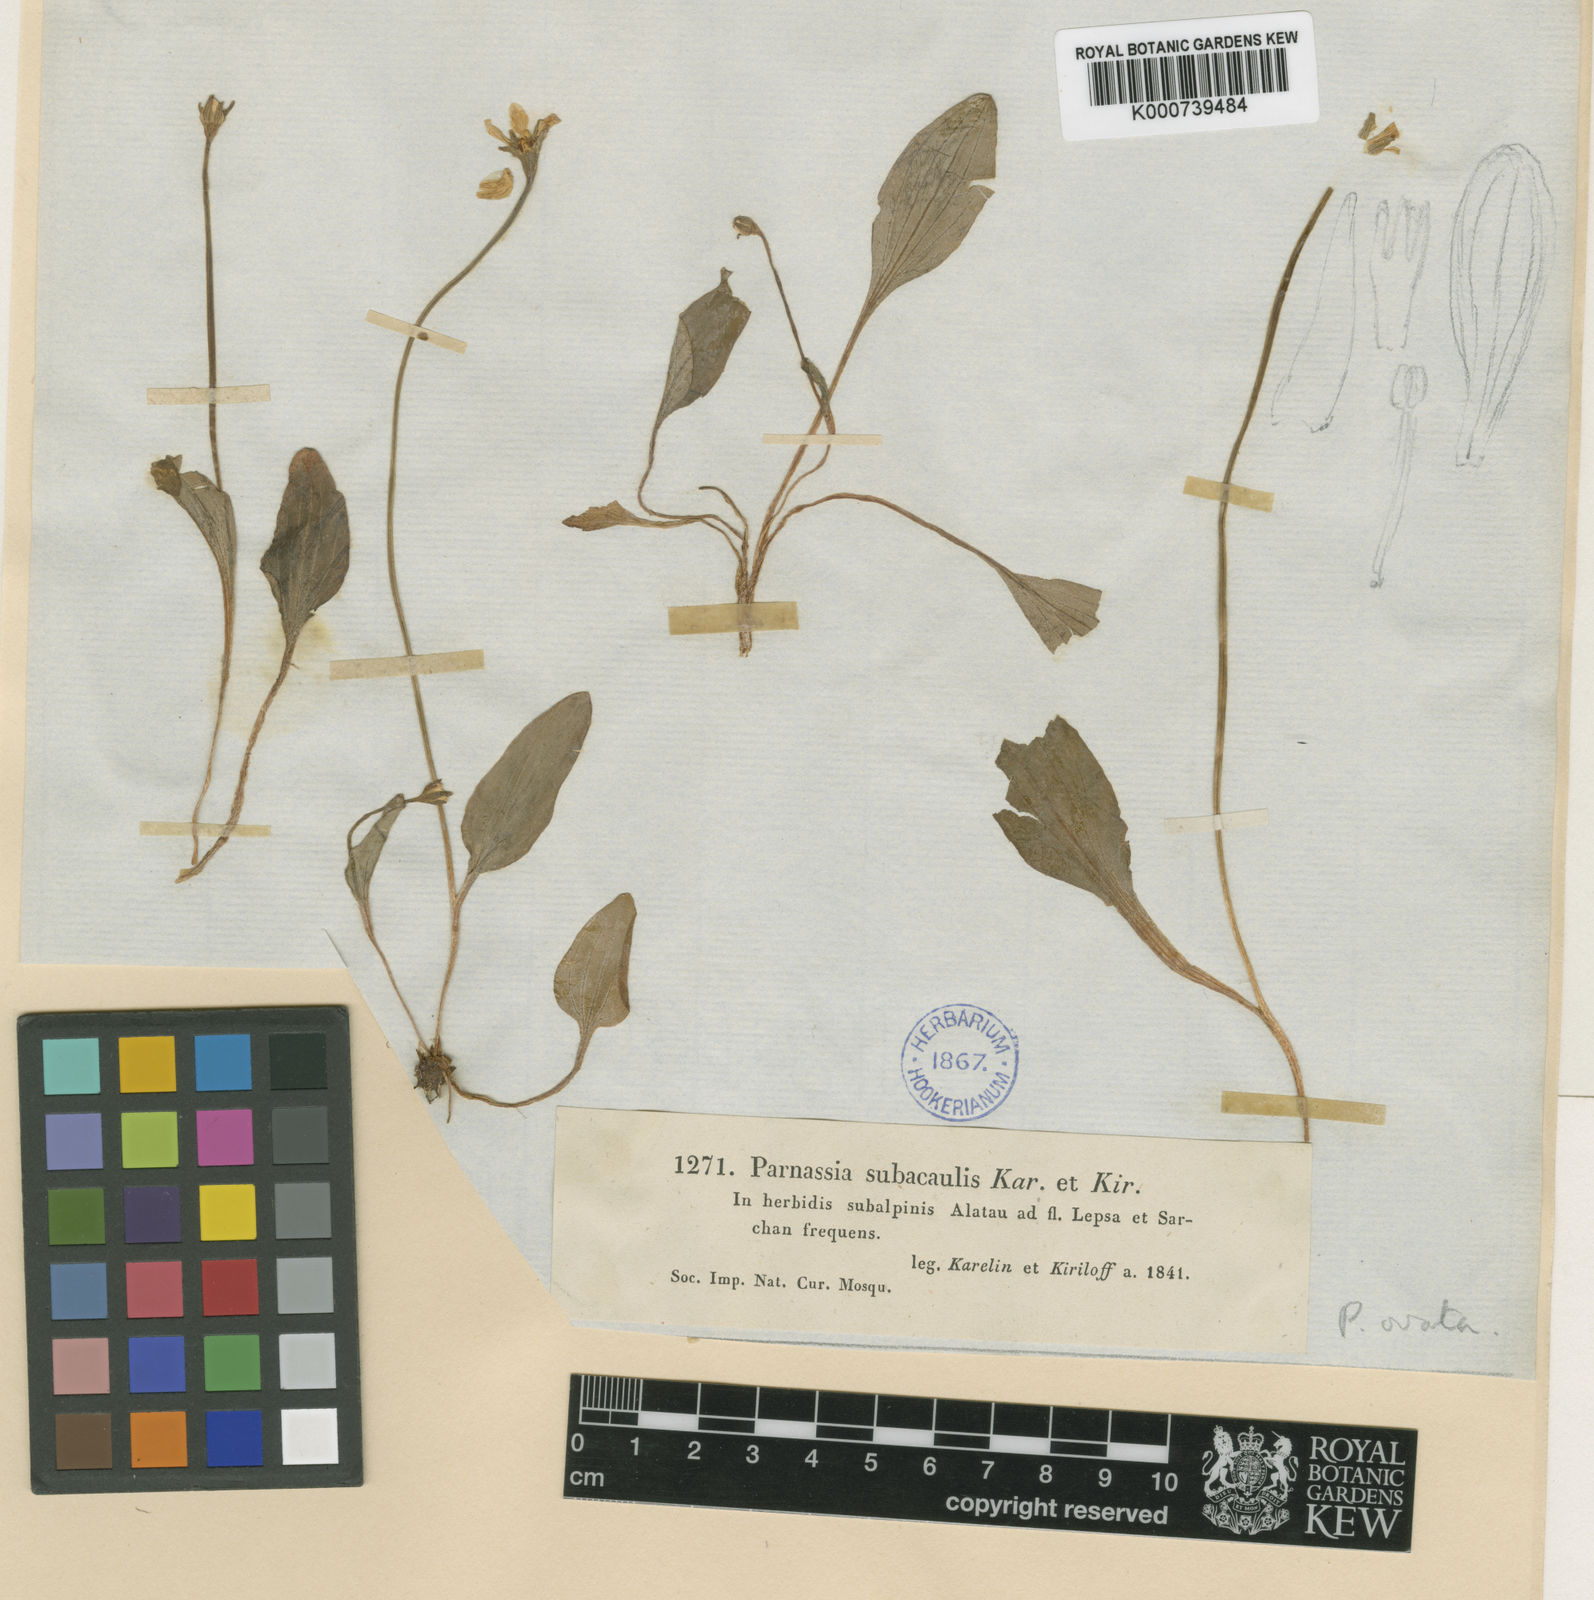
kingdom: Plantae
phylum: Tracheophyta
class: Magnoliopsida
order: Celastrales
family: Parnassiaceae
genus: Parnassia
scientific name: Parnassia laxmannii
